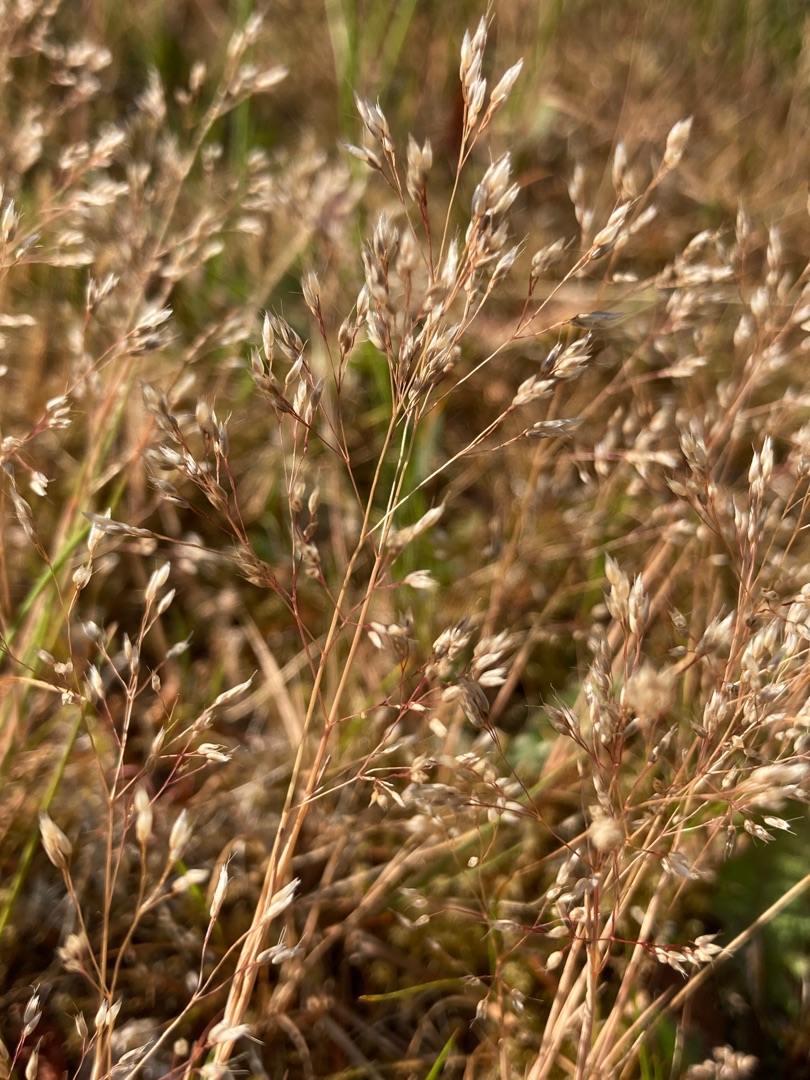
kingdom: Plantae
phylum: Tracheophyta
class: Liliopsida
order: Poales
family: Poaceae
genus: Aira
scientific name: Aira caryophyllea
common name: Udspærret dværgbunke
